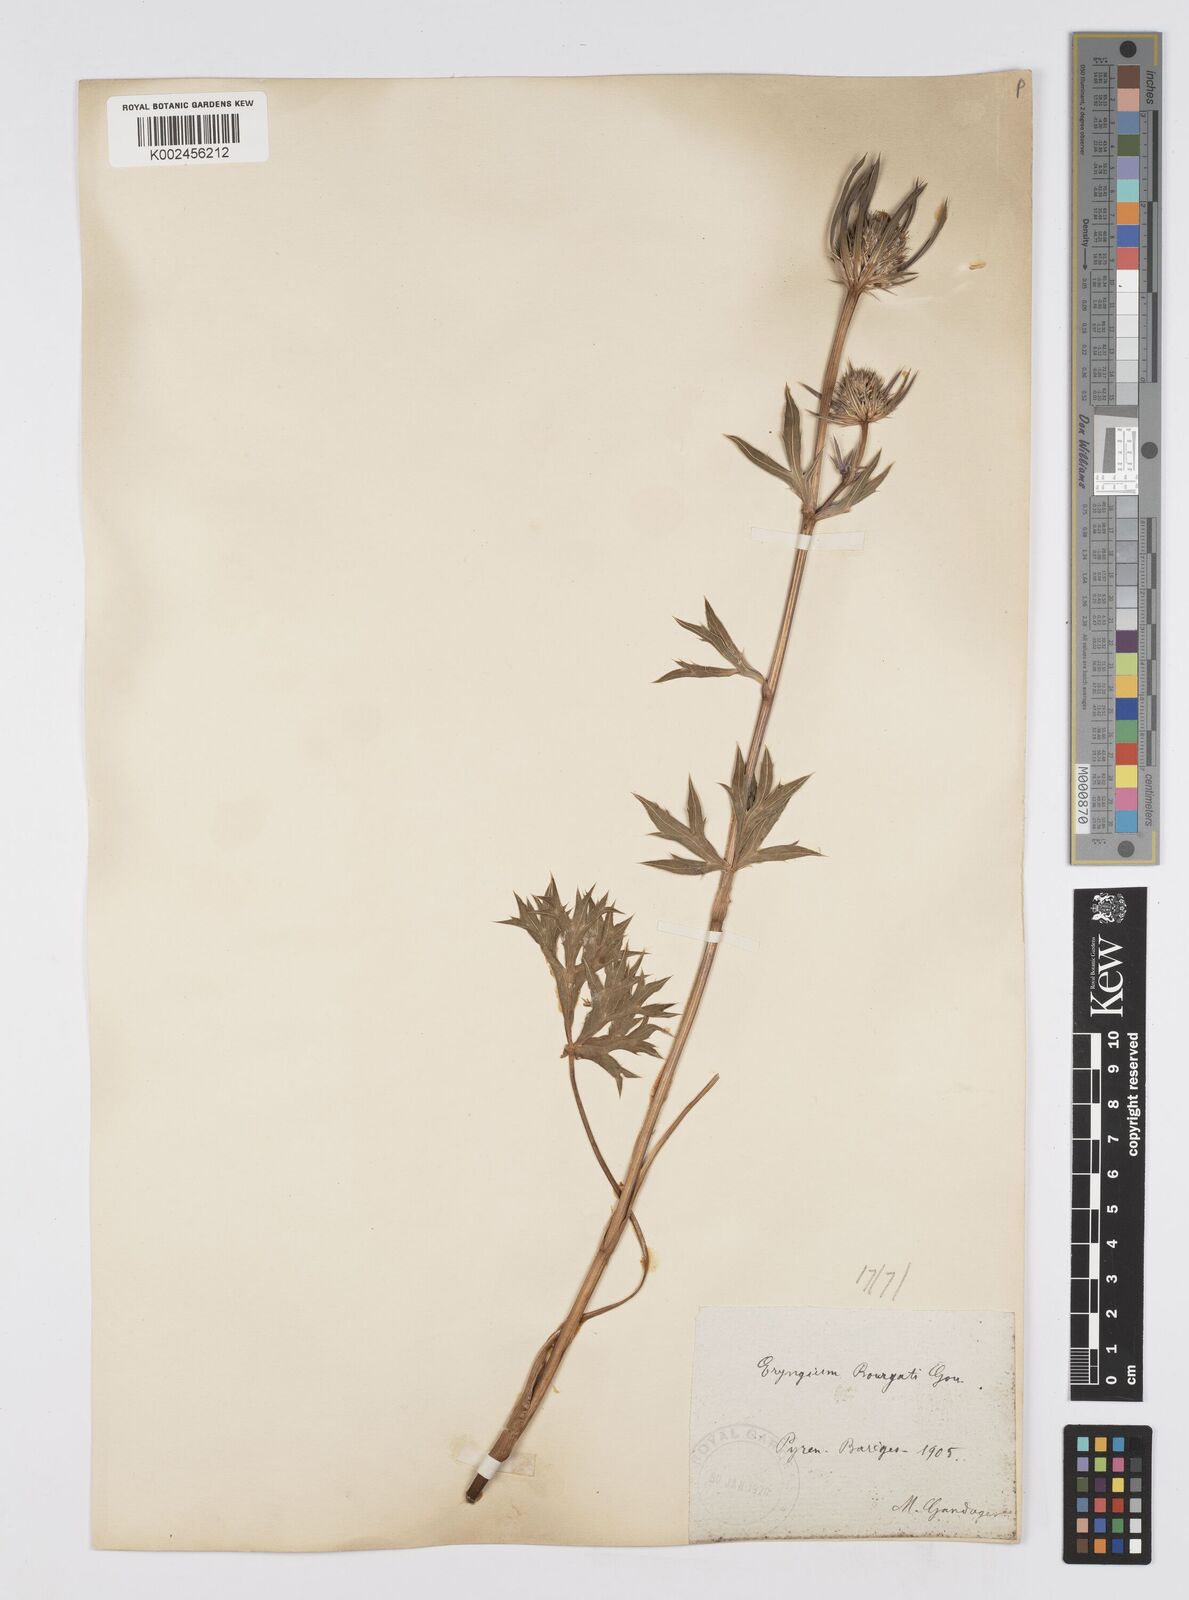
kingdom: Plantae
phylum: Tracheophyta
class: Magnoliopsida
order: Apiales
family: Apiaceae
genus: Eryngium
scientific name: Eryngium bourgatii
